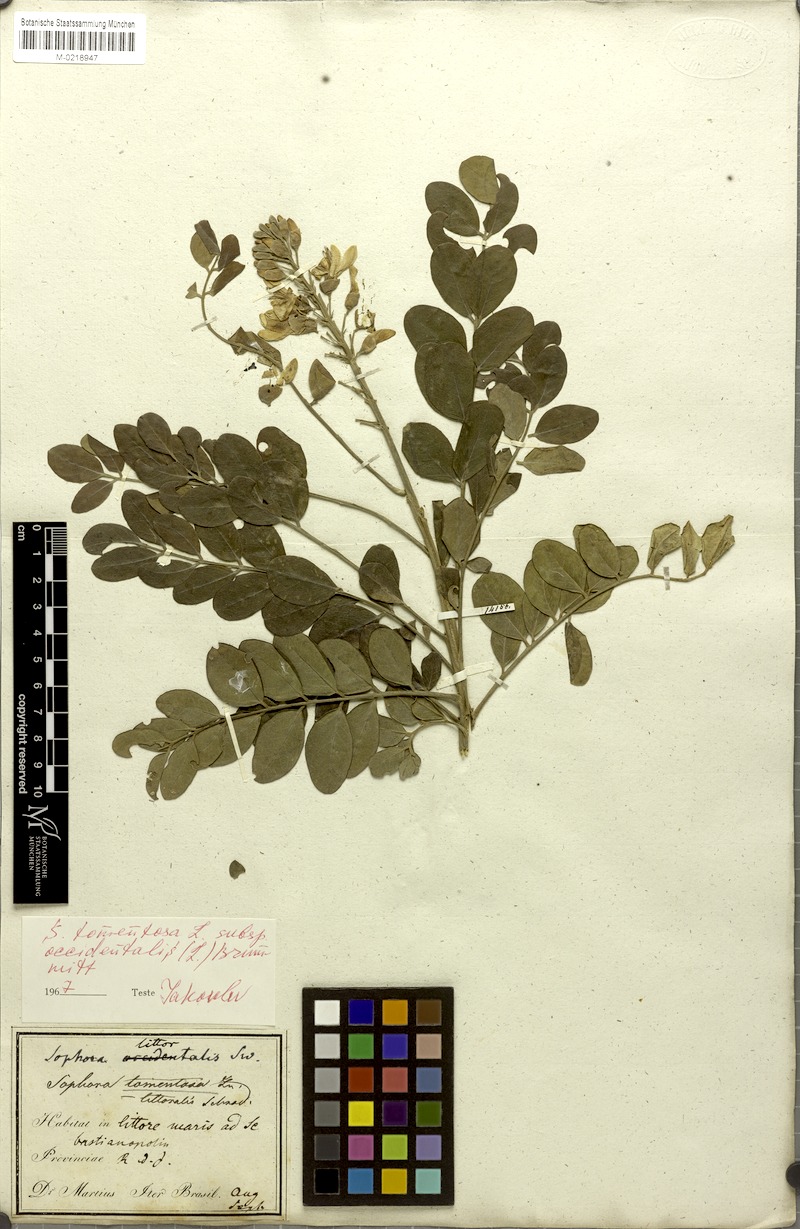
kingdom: Plantae
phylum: Tracheophyta
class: Magnoliopsida
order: Fabales
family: Fabaceae
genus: Sophora
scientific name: Sophora tomentosa
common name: Yellow necklacepod
